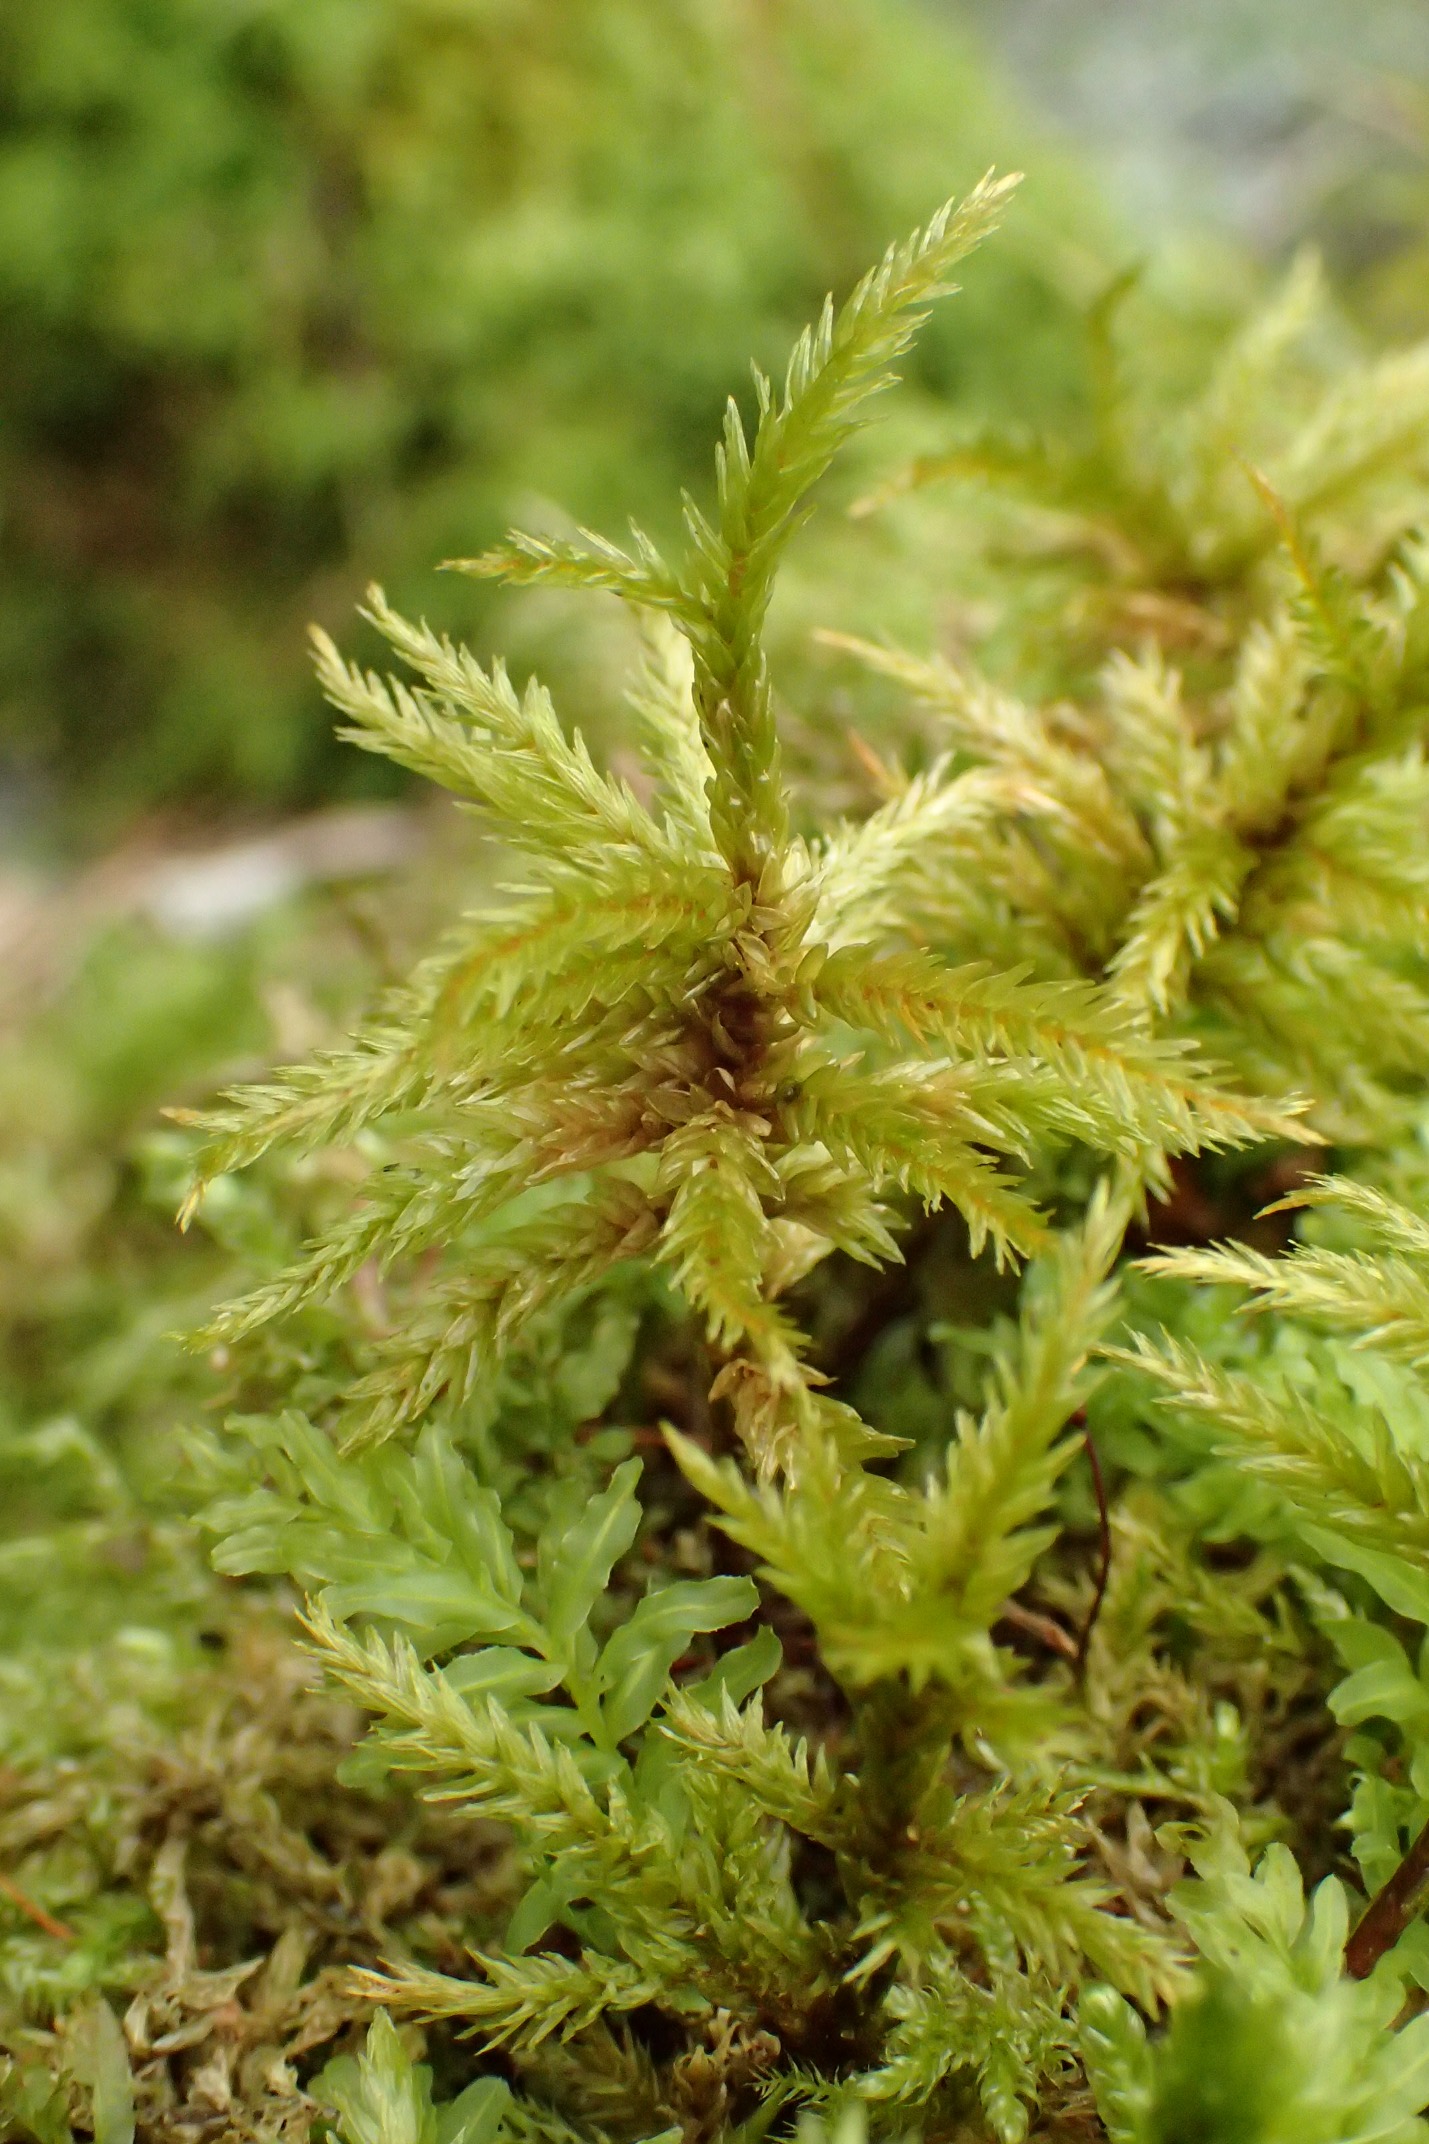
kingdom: Plantae
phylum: Bryophyta
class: Bryopsida
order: Hypnales
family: Climaciaceae
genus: Climacium
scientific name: Climacium dendroides
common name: Stor engkost
